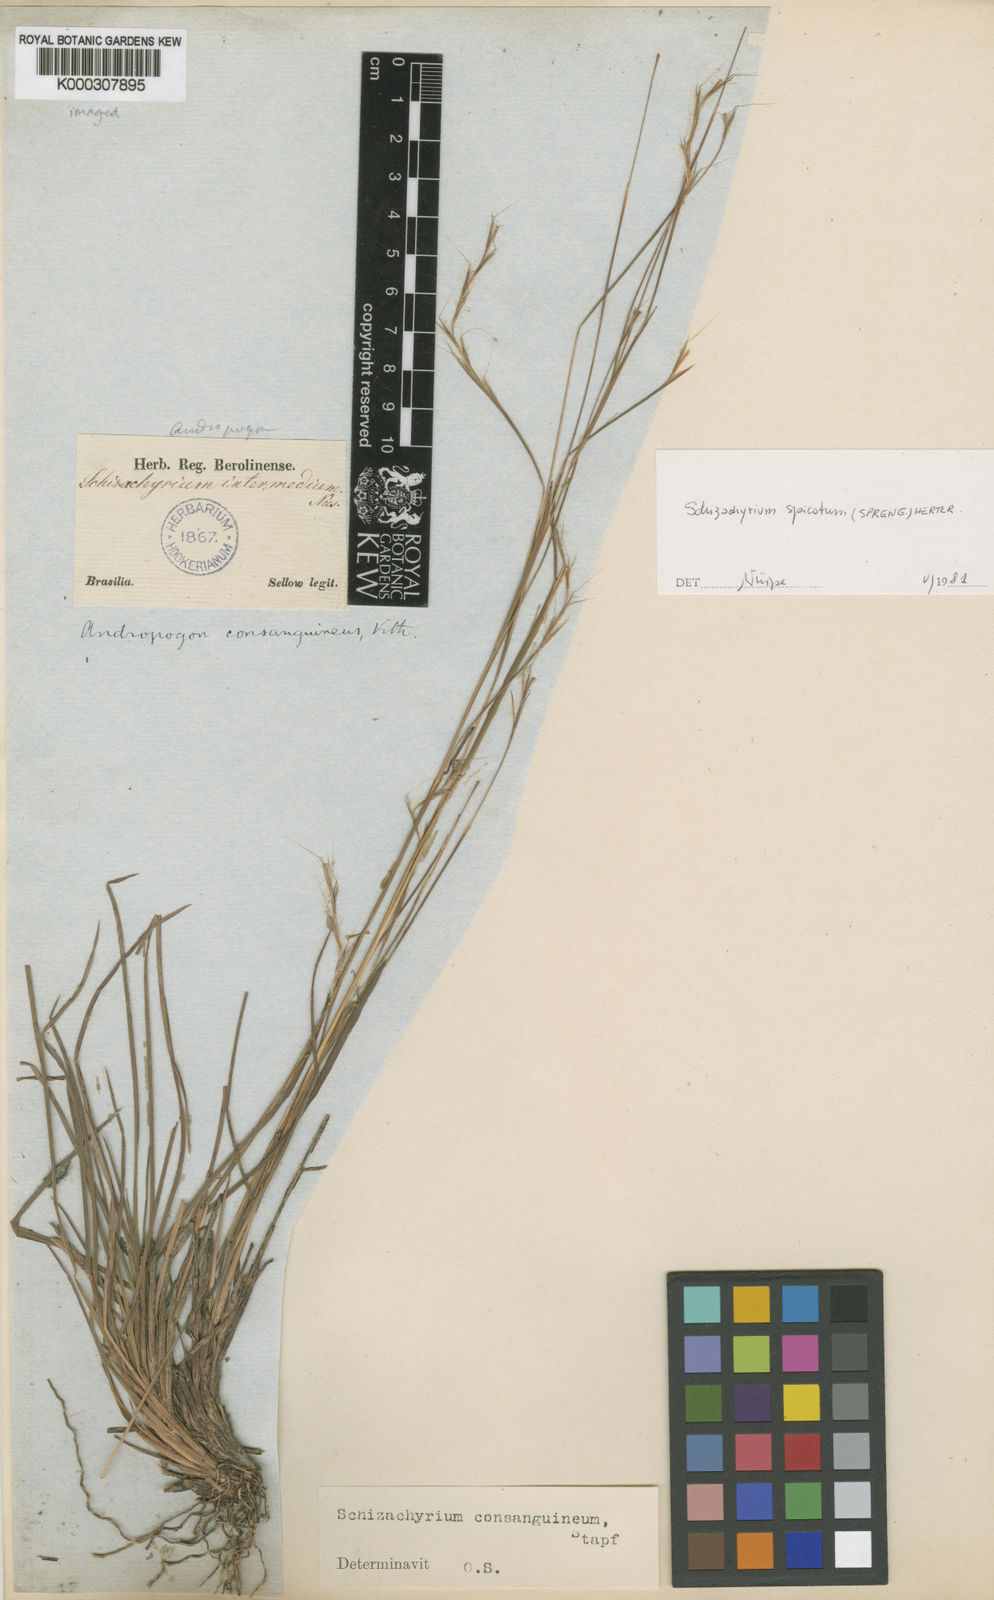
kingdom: Plantae
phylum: Tracheophyta
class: Liliopsida
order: Poales
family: Poaceae
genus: Schizachyrium
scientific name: Schizachyrium spicatum
